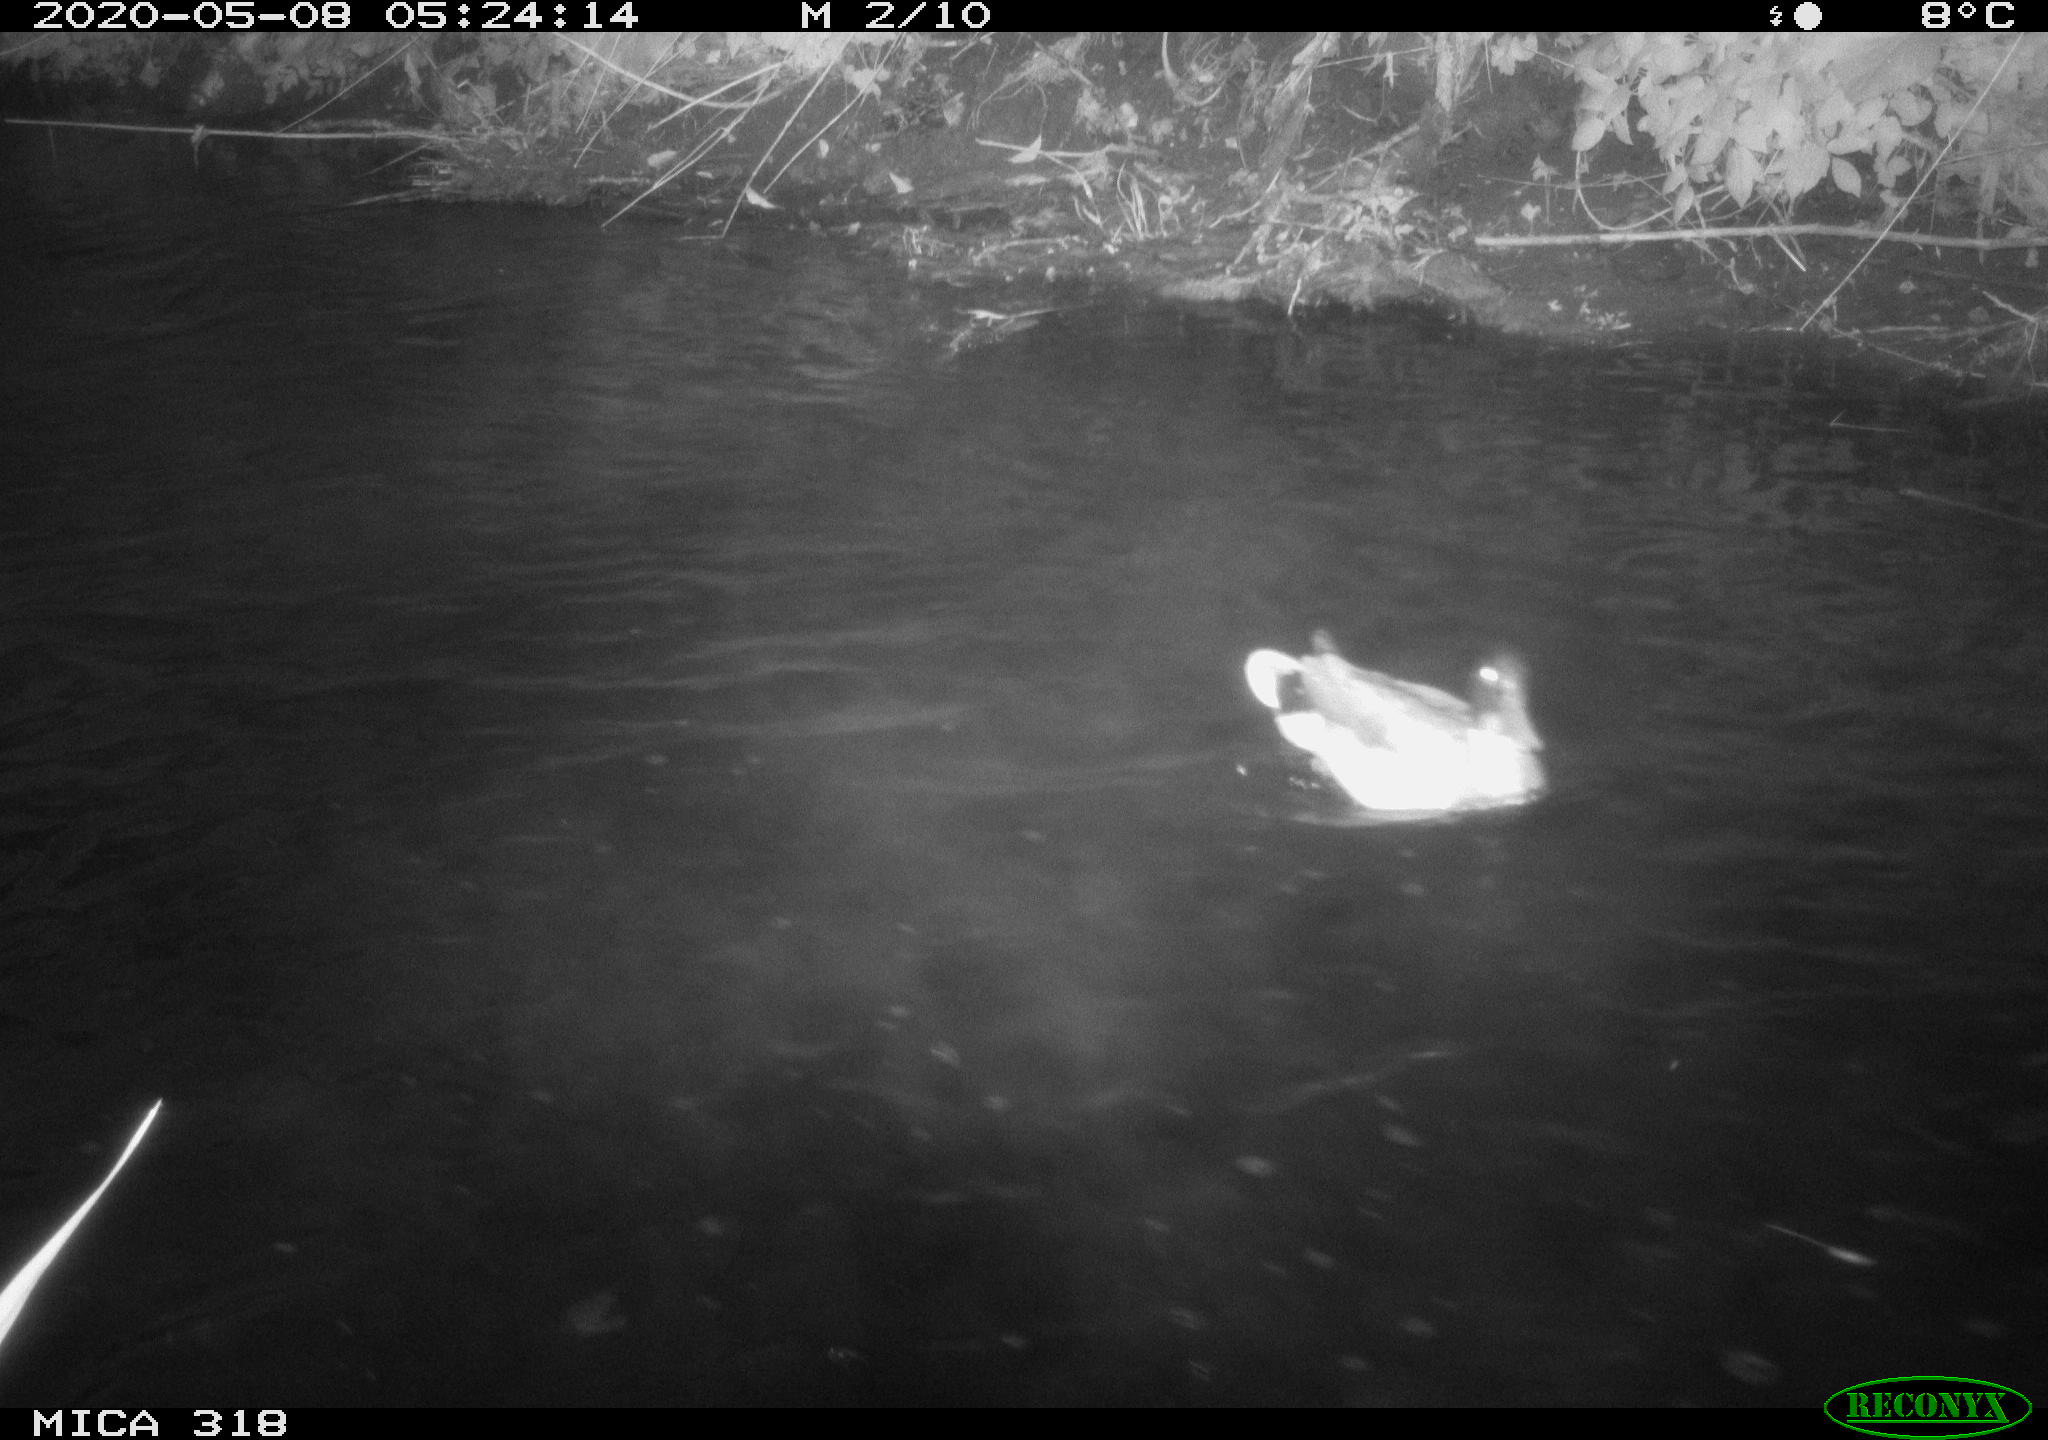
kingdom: Animalia
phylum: Chordata
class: Aves
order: Pelecaniformes
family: Ardeidae
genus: Ardea
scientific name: Ardea cinerea
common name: Grey heron
